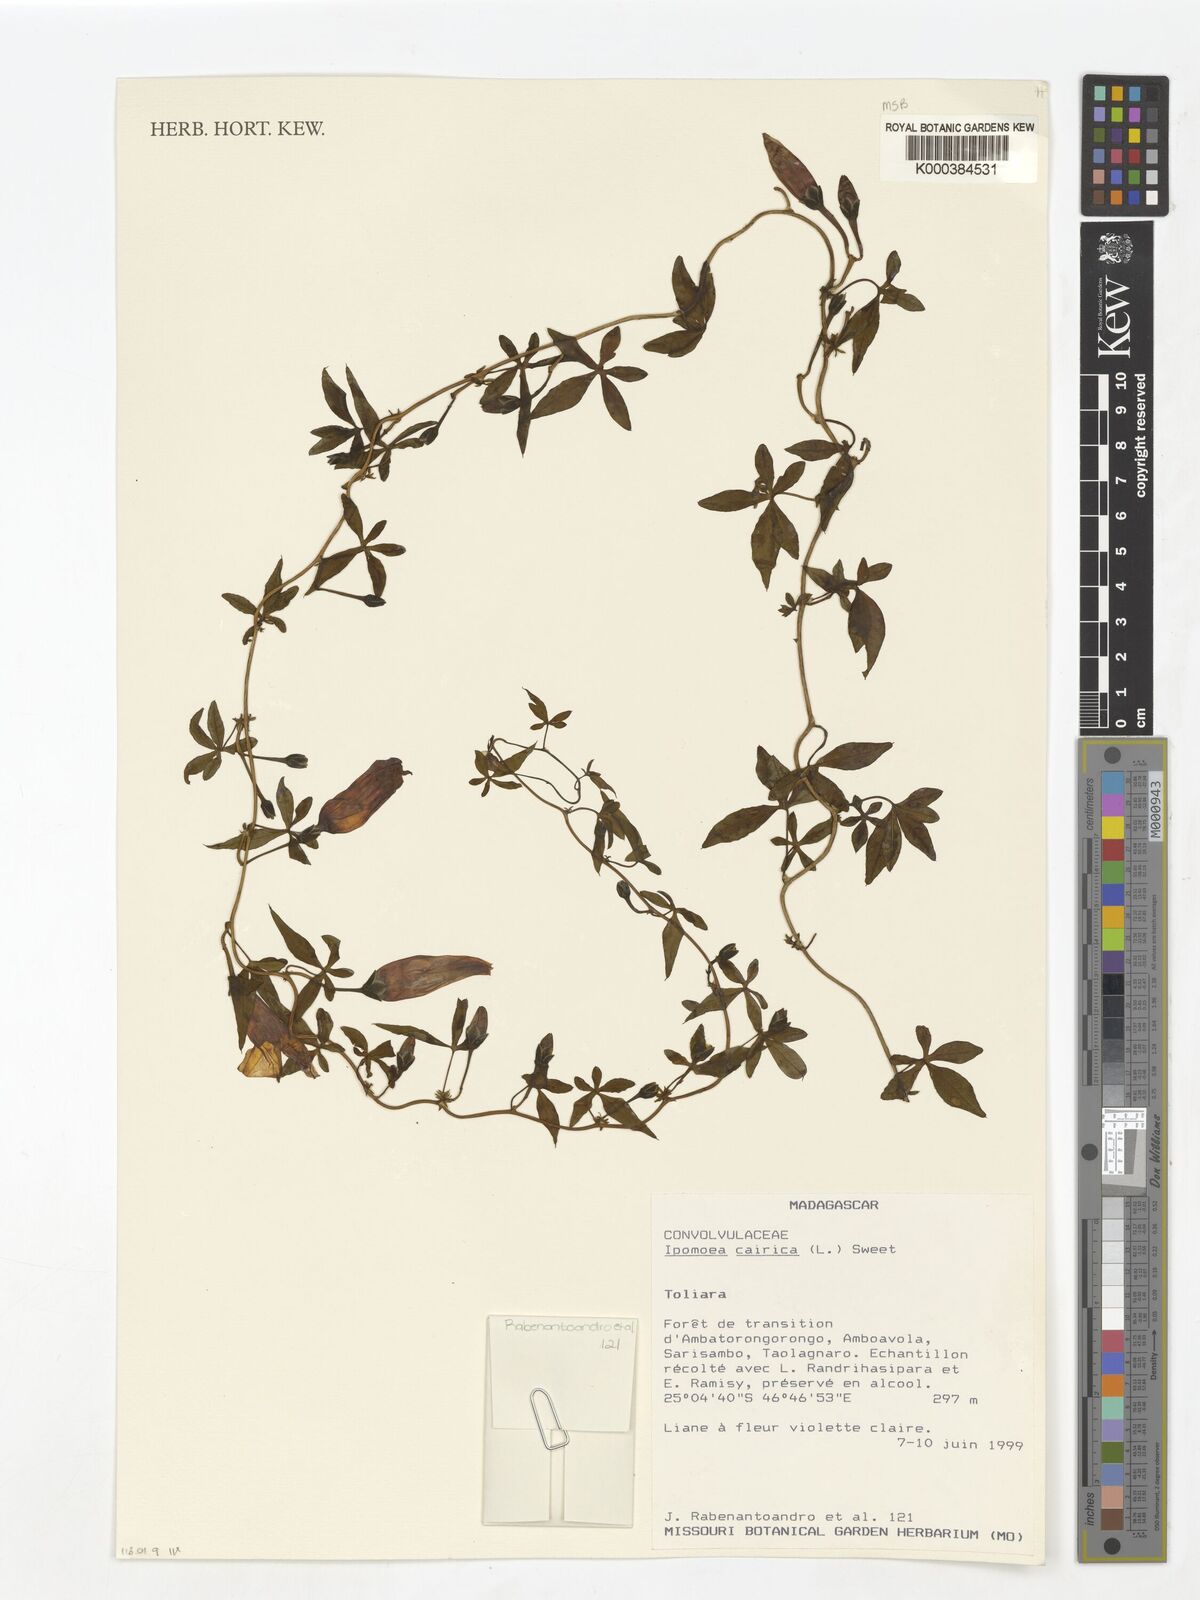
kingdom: Plantae
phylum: Tracheophyta
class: Magnoliopsida
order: Solanales
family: Convolvulaceae
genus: Ipomoea
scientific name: Ipomoea cairica
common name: Mile a minute vine
